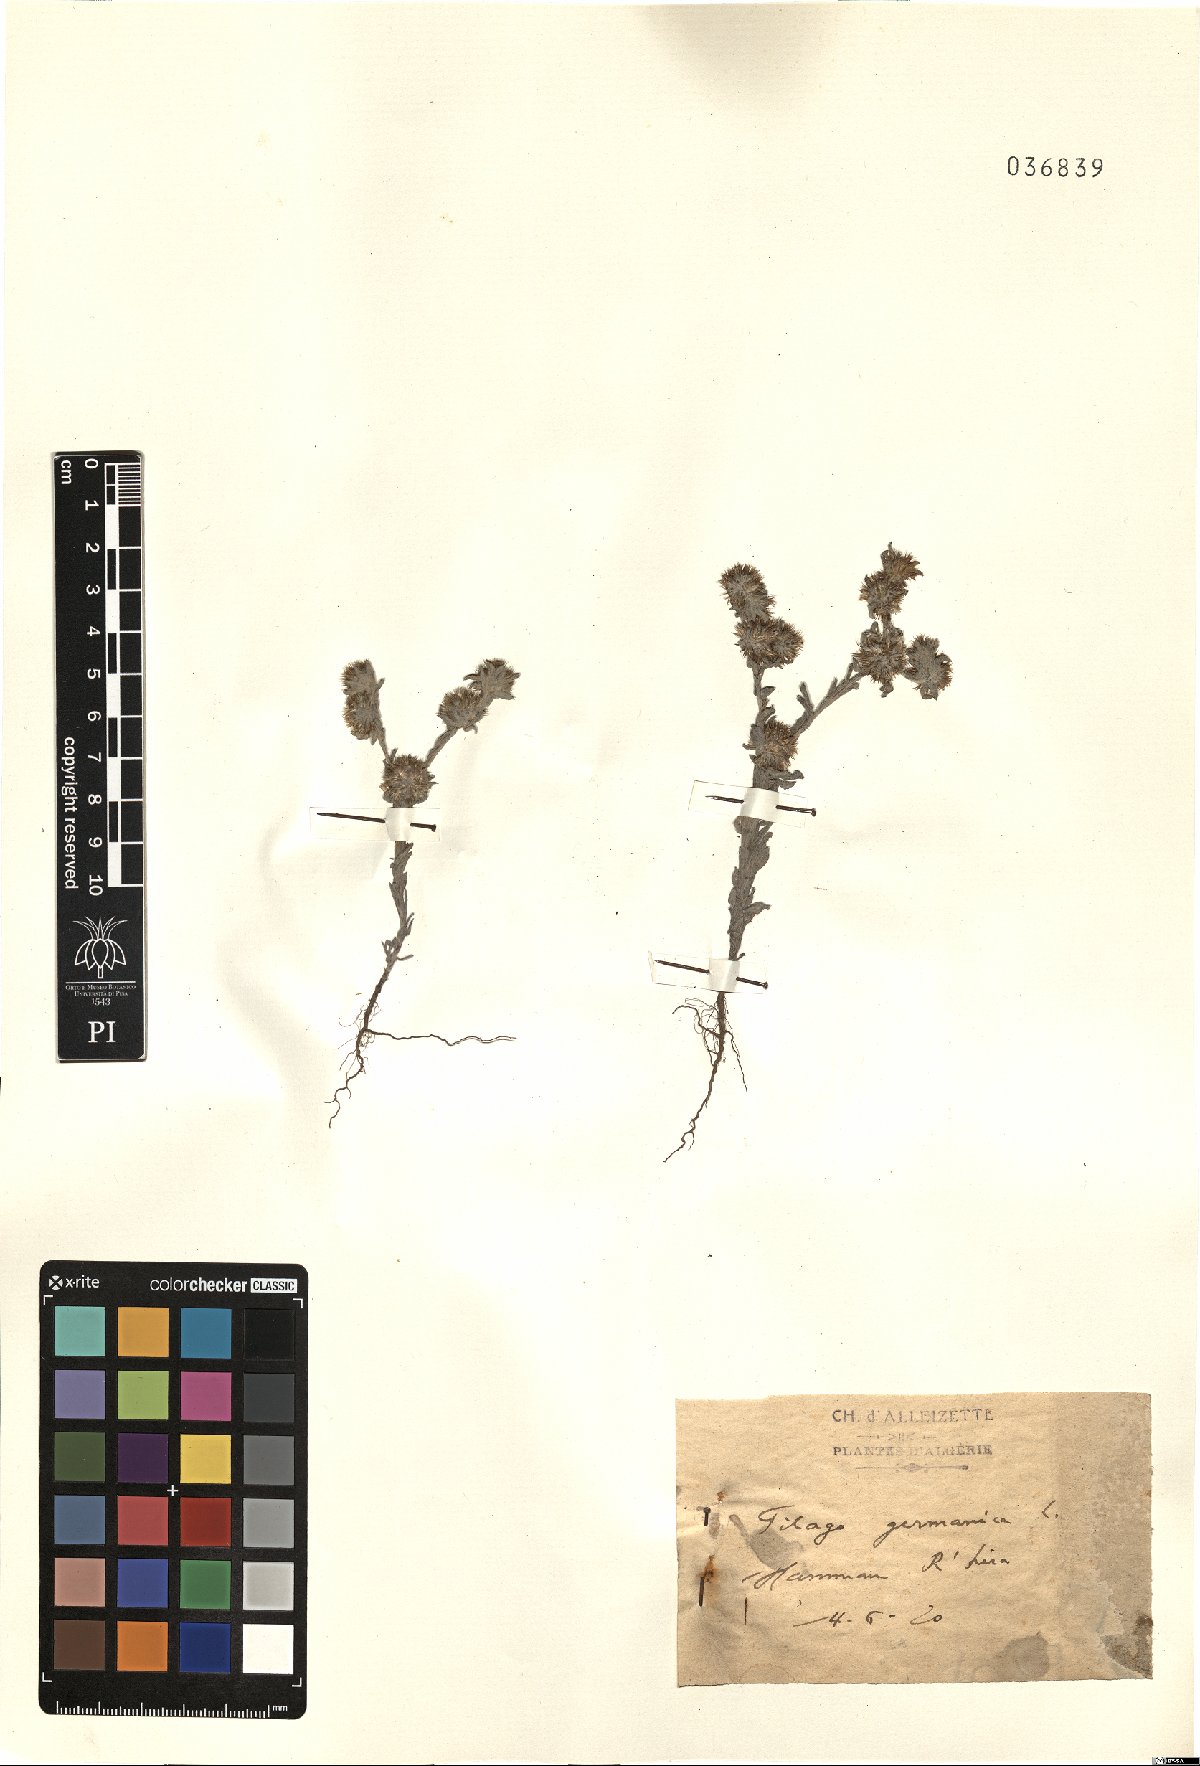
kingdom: Plantae
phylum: Tracheophyta
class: Magnoliopsida
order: Asterales
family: Asteraceae
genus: Filago
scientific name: Filago germanica
